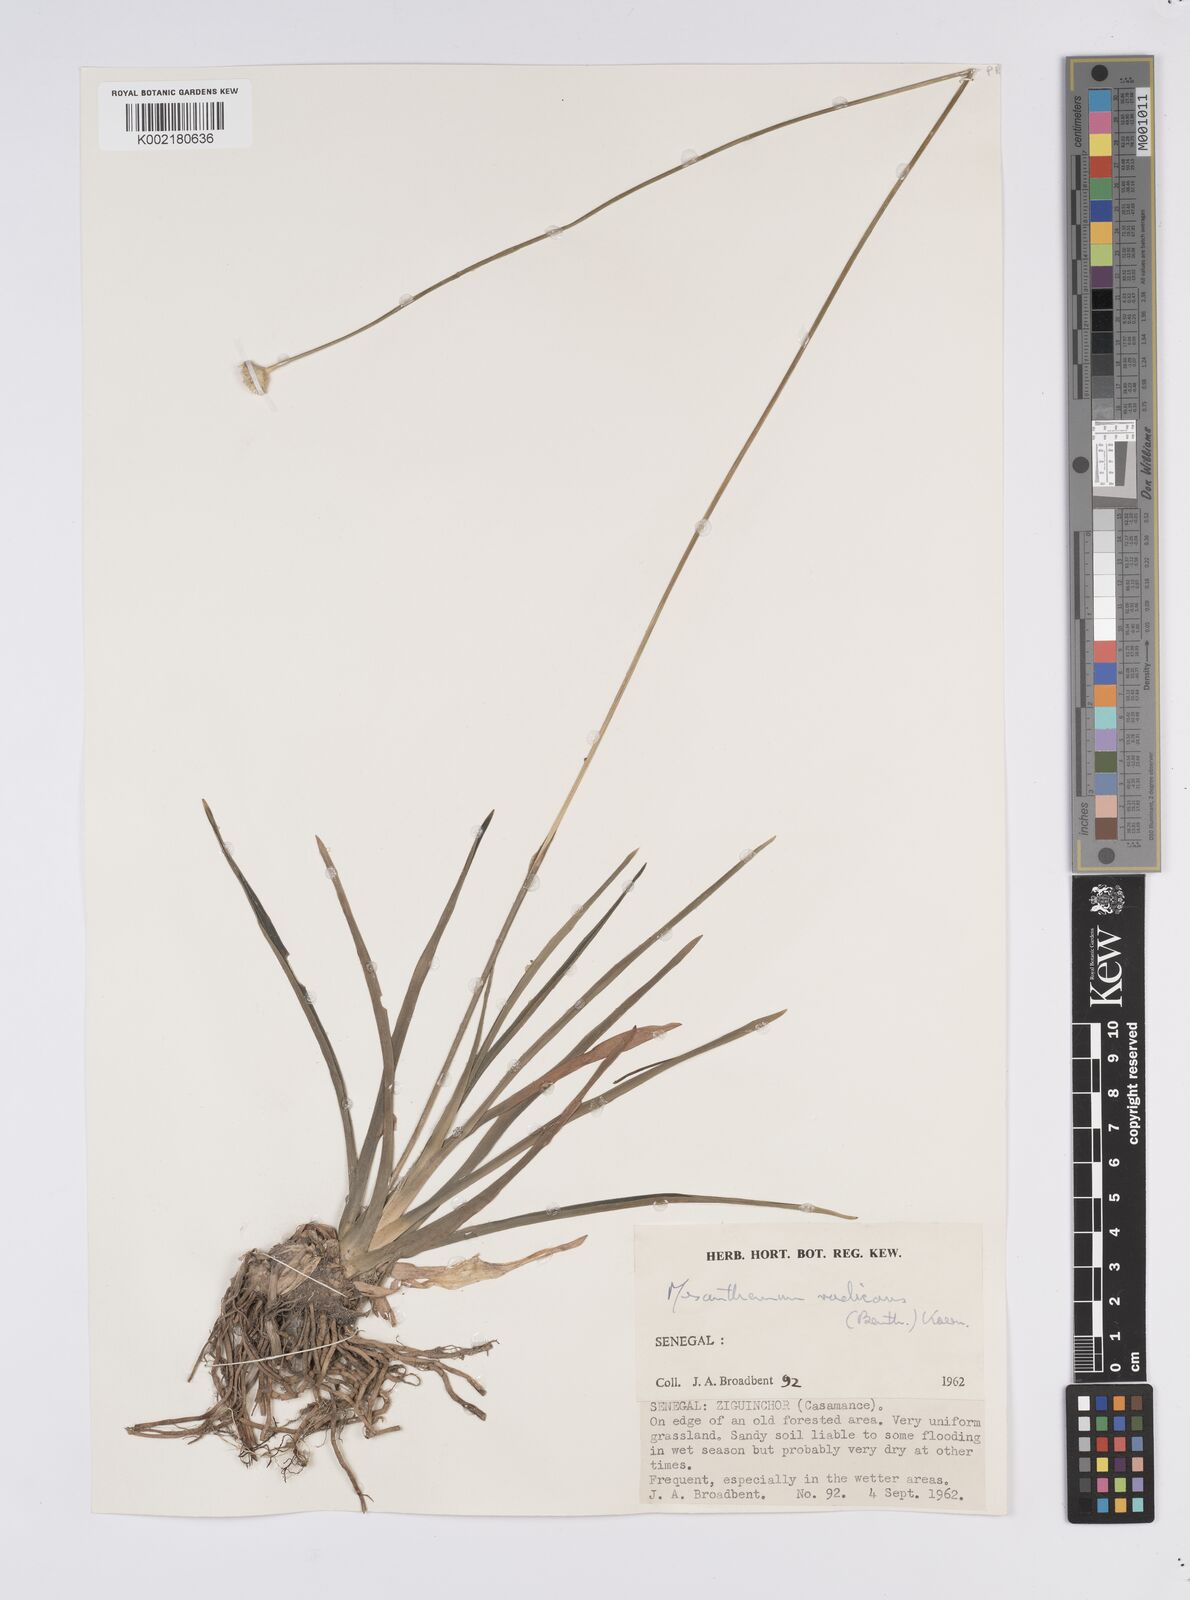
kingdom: Plantae
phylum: Tracheophyta
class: Liliopsida
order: Poales
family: Eriocaulaceae
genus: Mesanthemum
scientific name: Mesanthemum radicans
